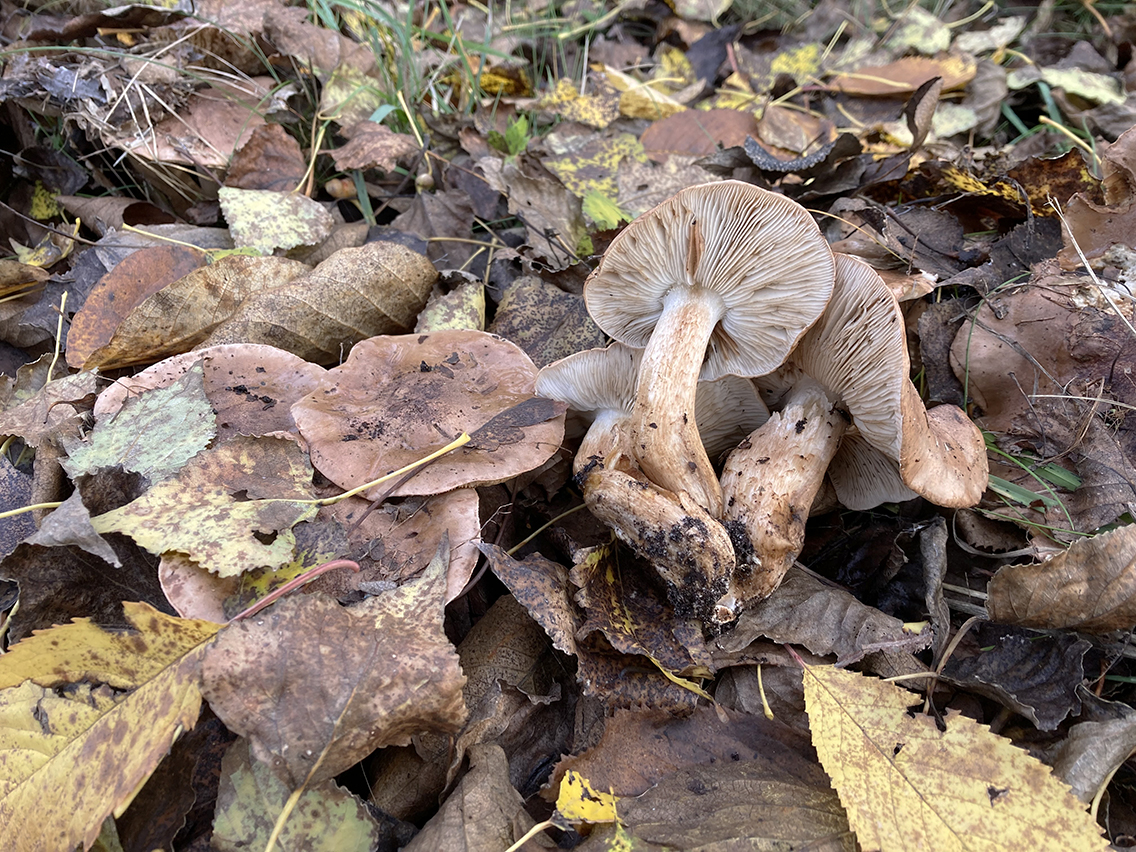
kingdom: Fungi
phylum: Basidiomycota
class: Agaricomycetes
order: Agaricales
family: Tricholomataceae
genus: Tricholoma
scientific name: Tricholoma populinum
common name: poppel-ridderhat
